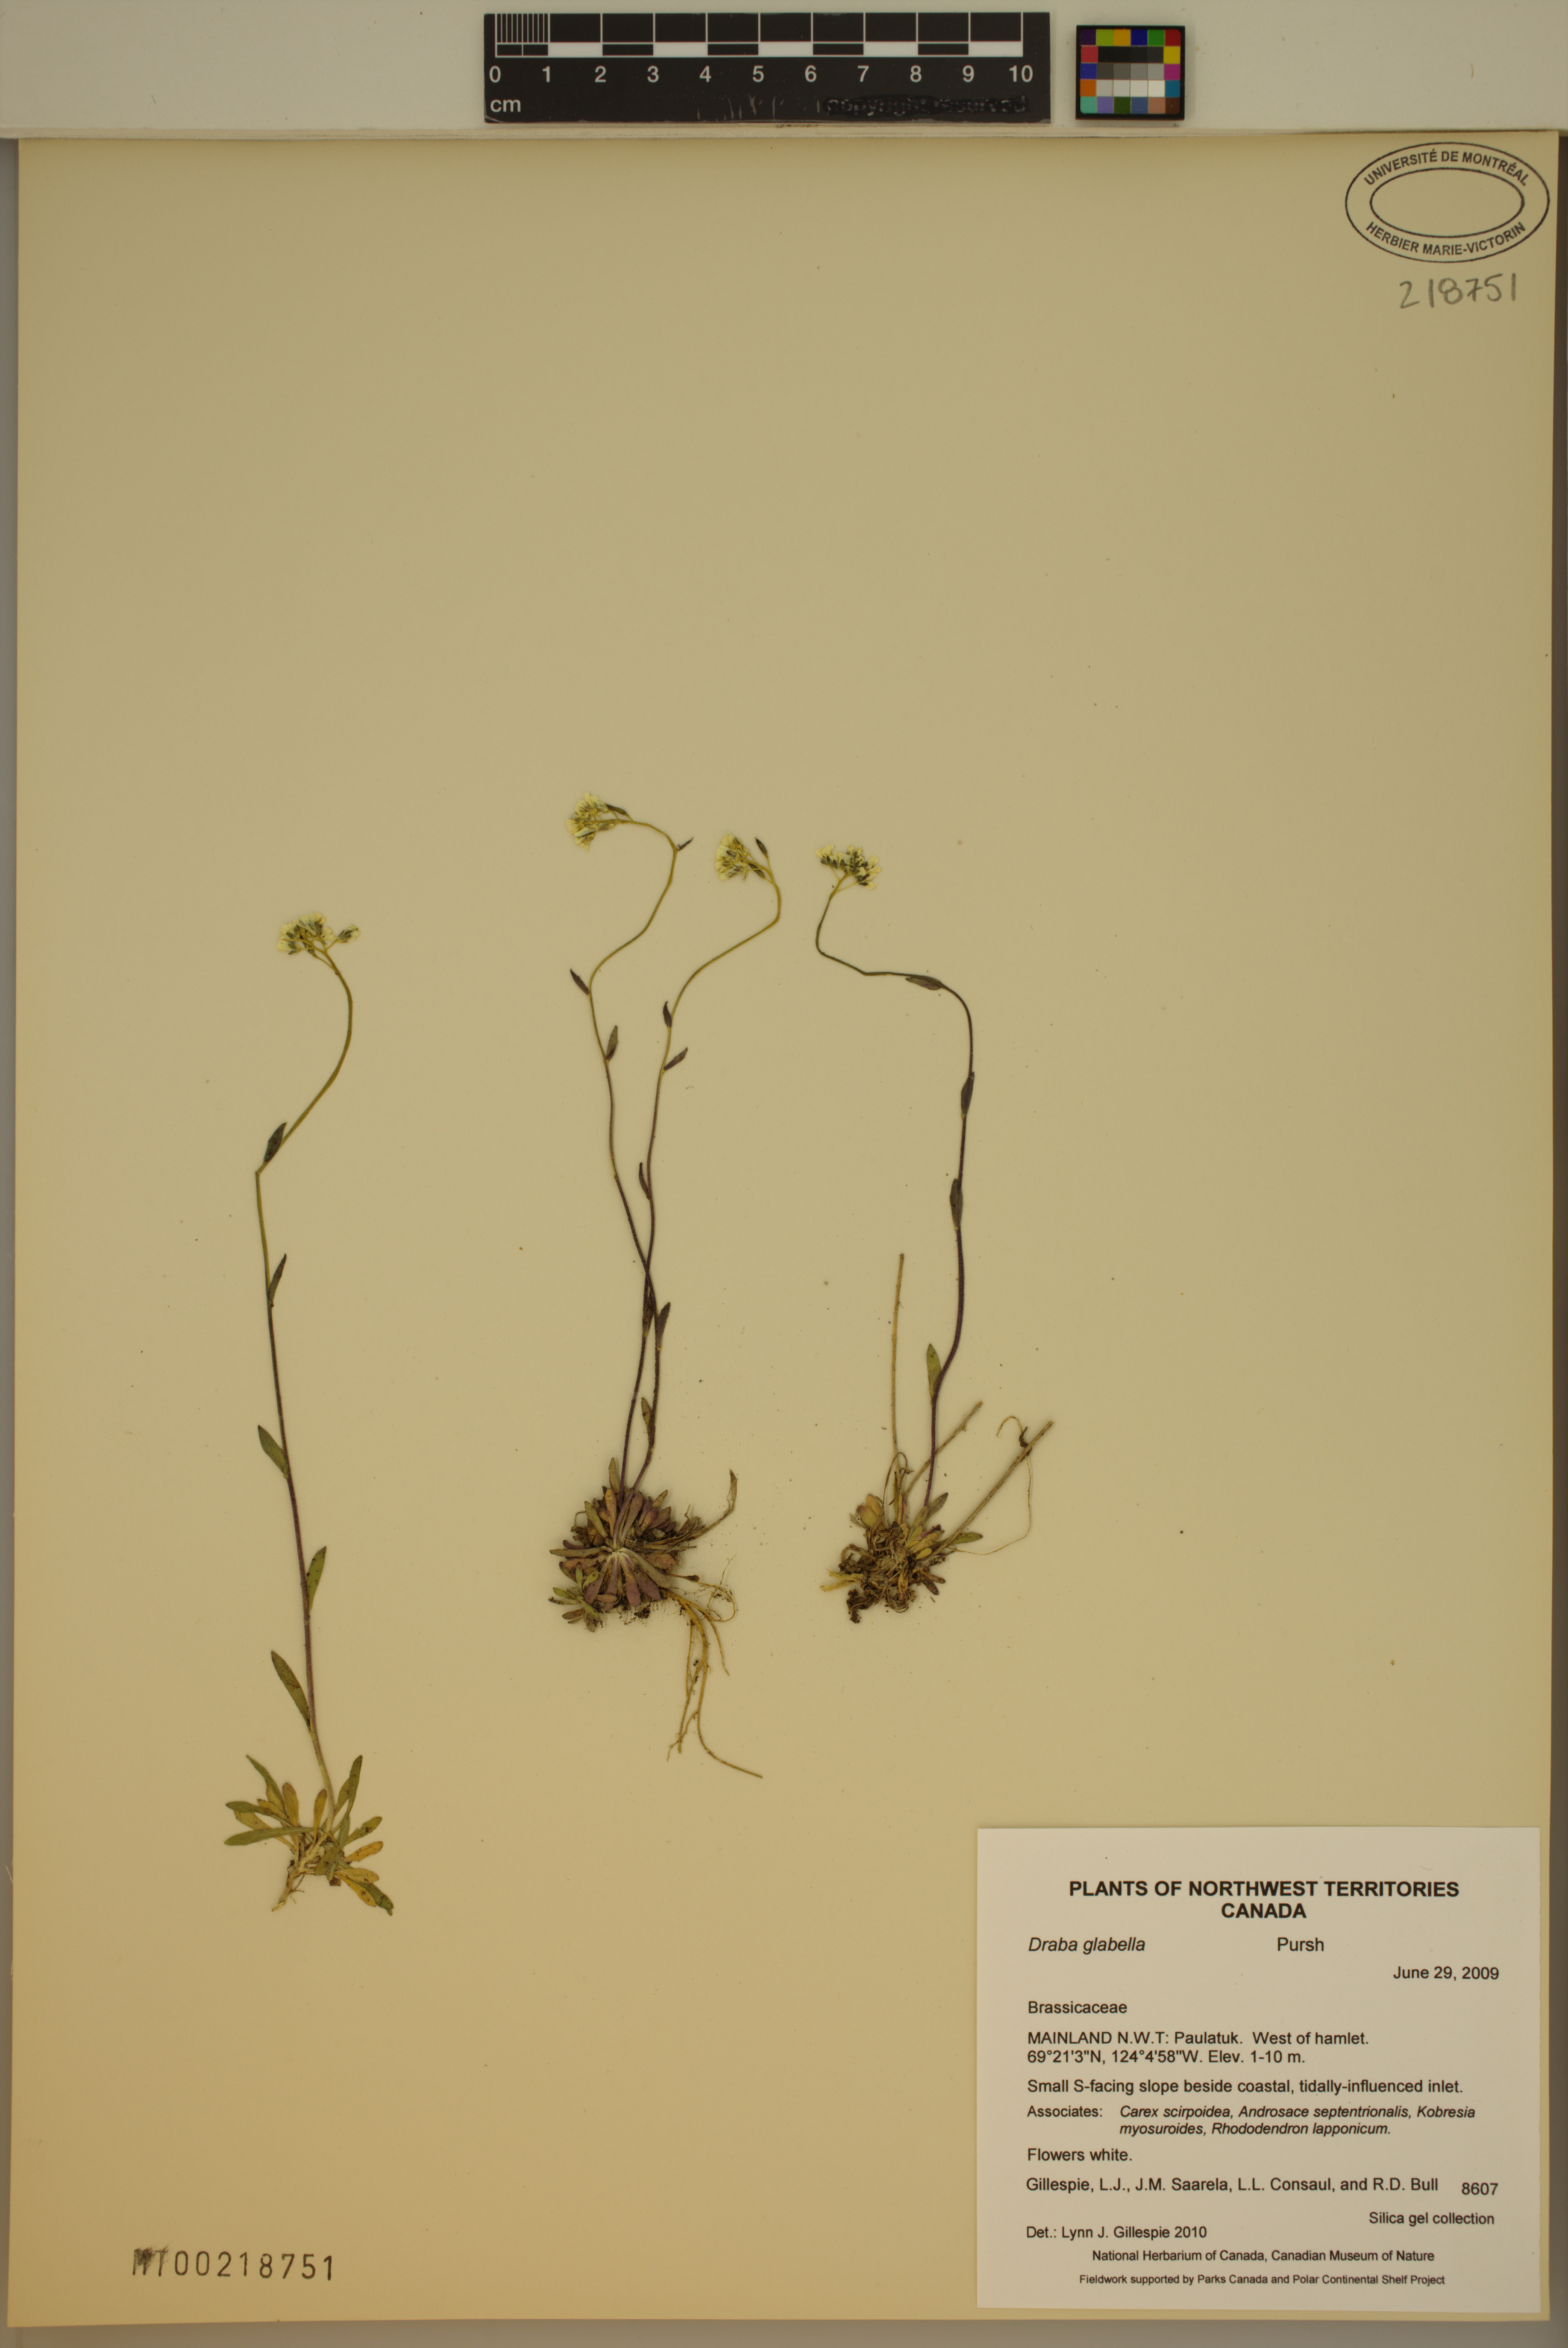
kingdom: Plantae
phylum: Tracheophyta
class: Magnoliopsida
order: Brassicales
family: Brassicaceae
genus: Draba
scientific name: Draba glabella
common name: Glaucous draba
